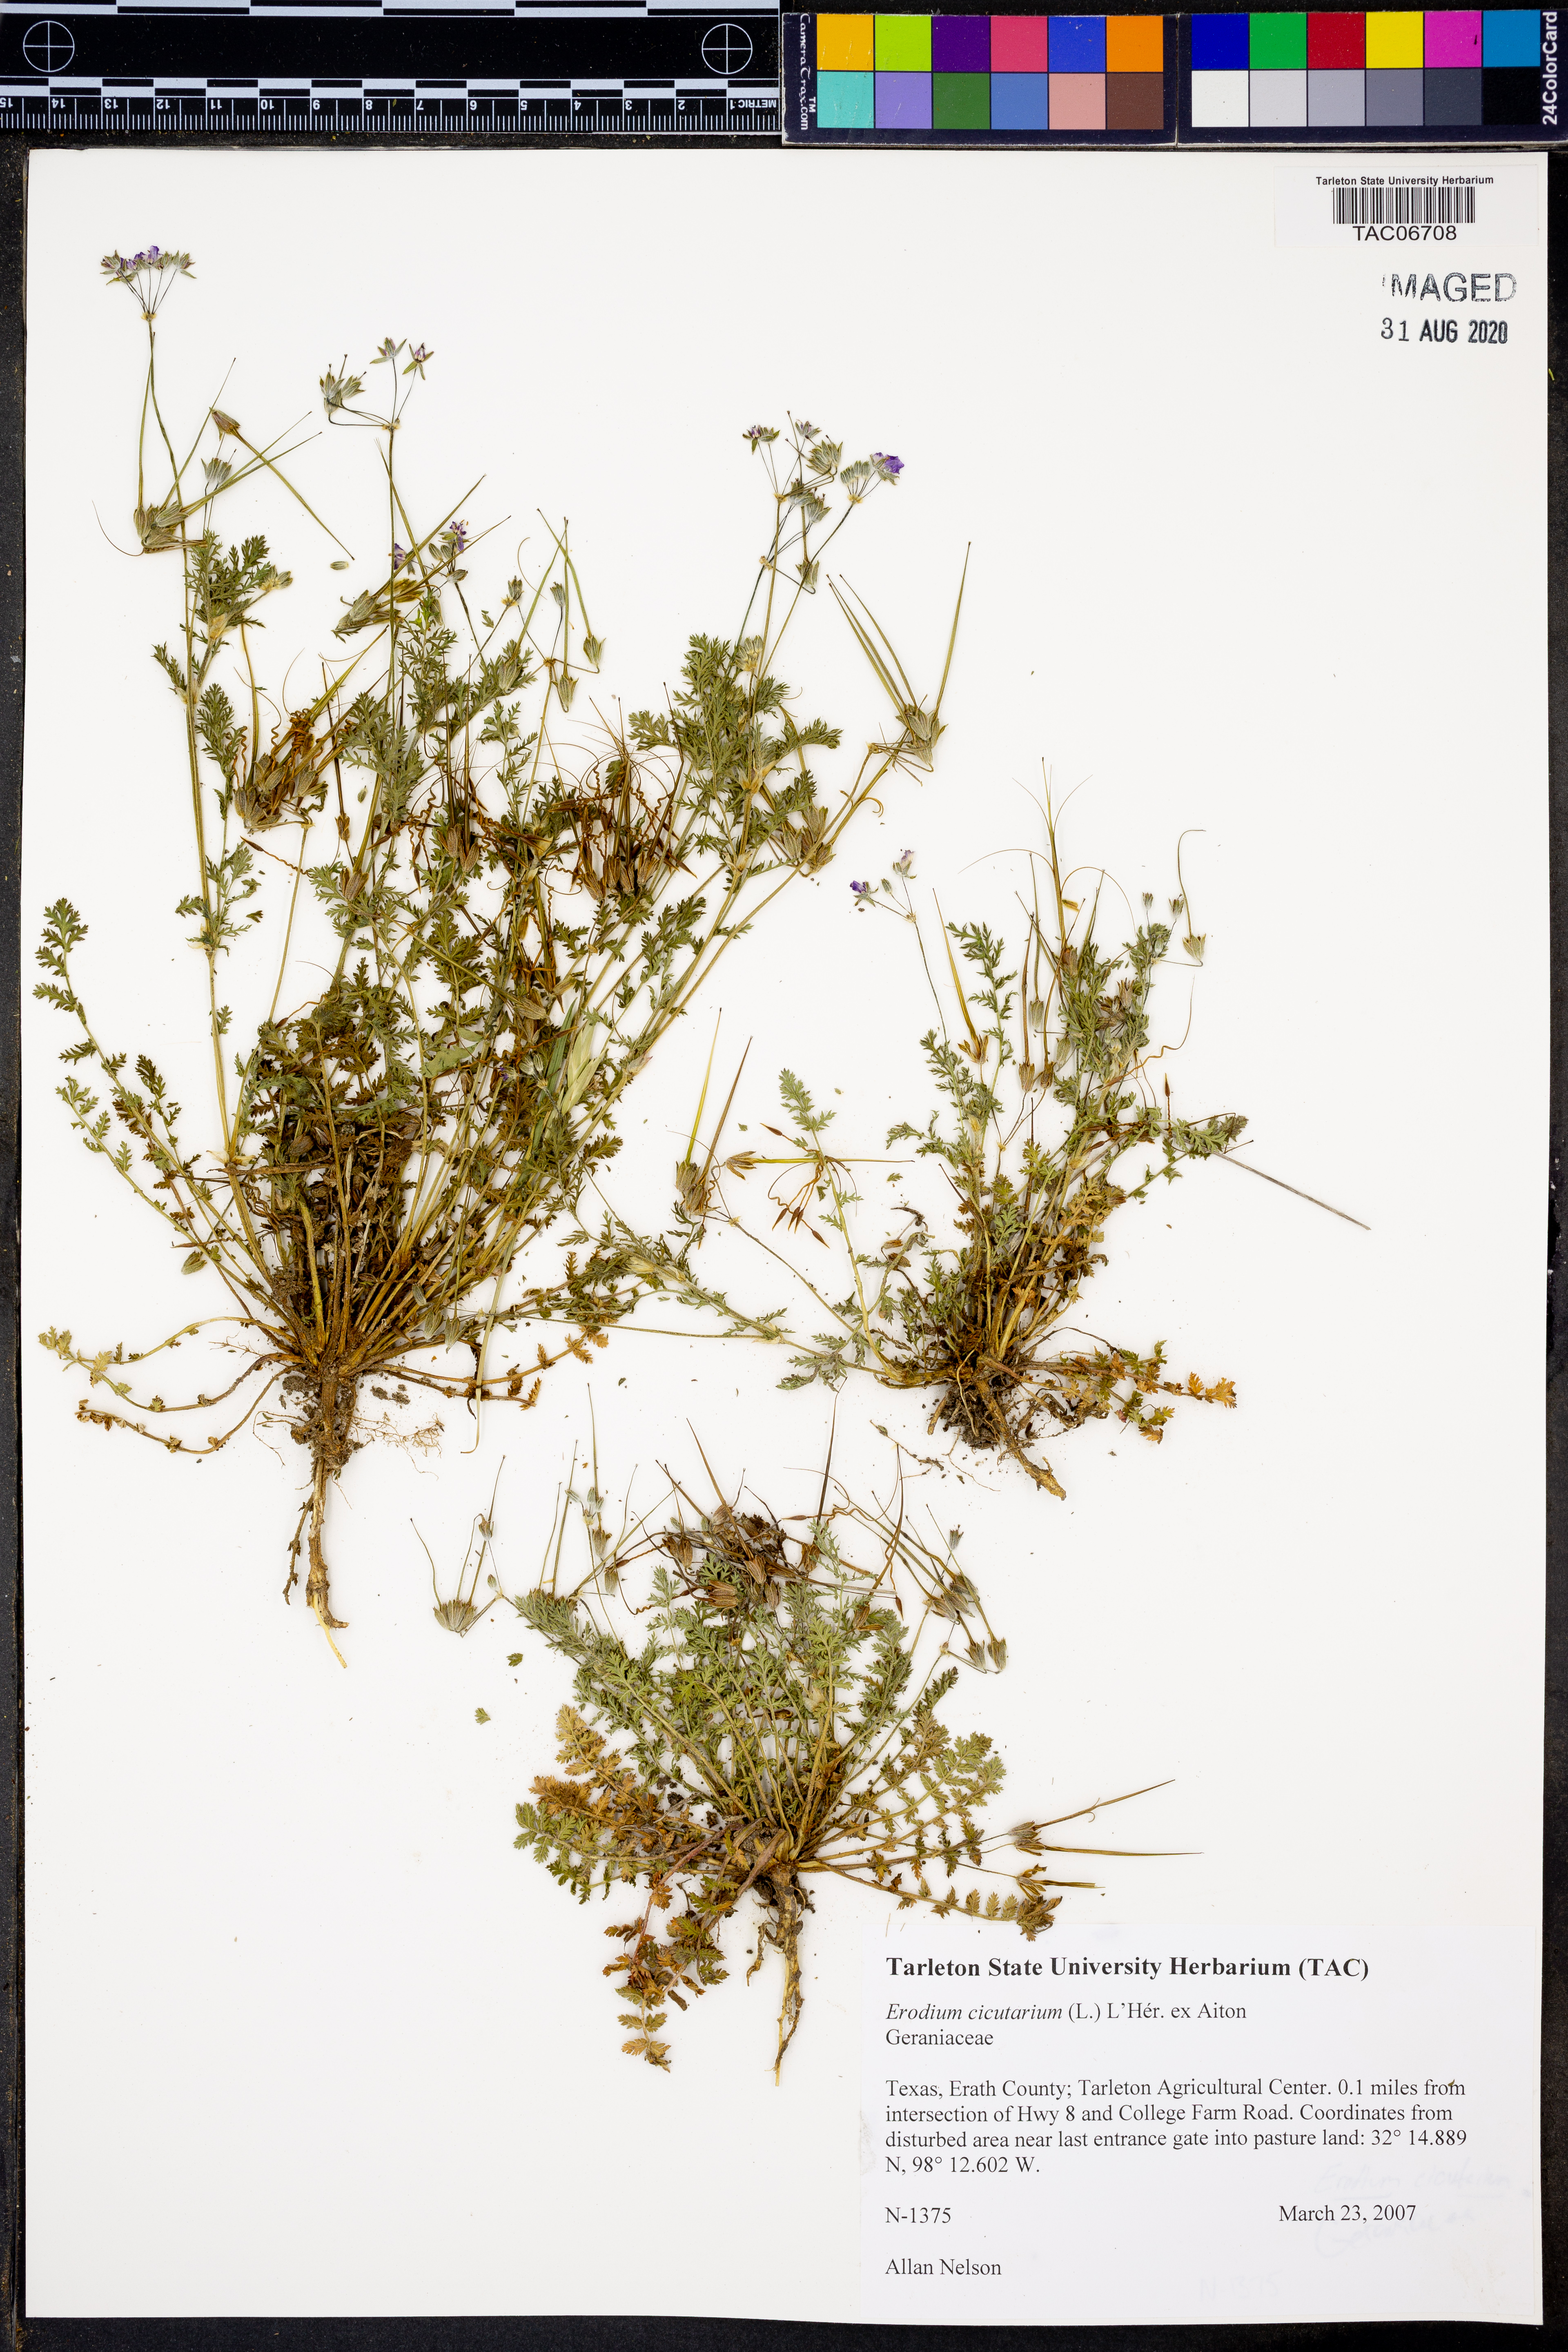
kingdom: Plantae
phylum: Tracheophyta
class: Magnoliopsida
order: Geraniales
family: Geraniaceae
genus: Erodium
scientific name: Erodium cicutarium
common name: Common stork's-bill
